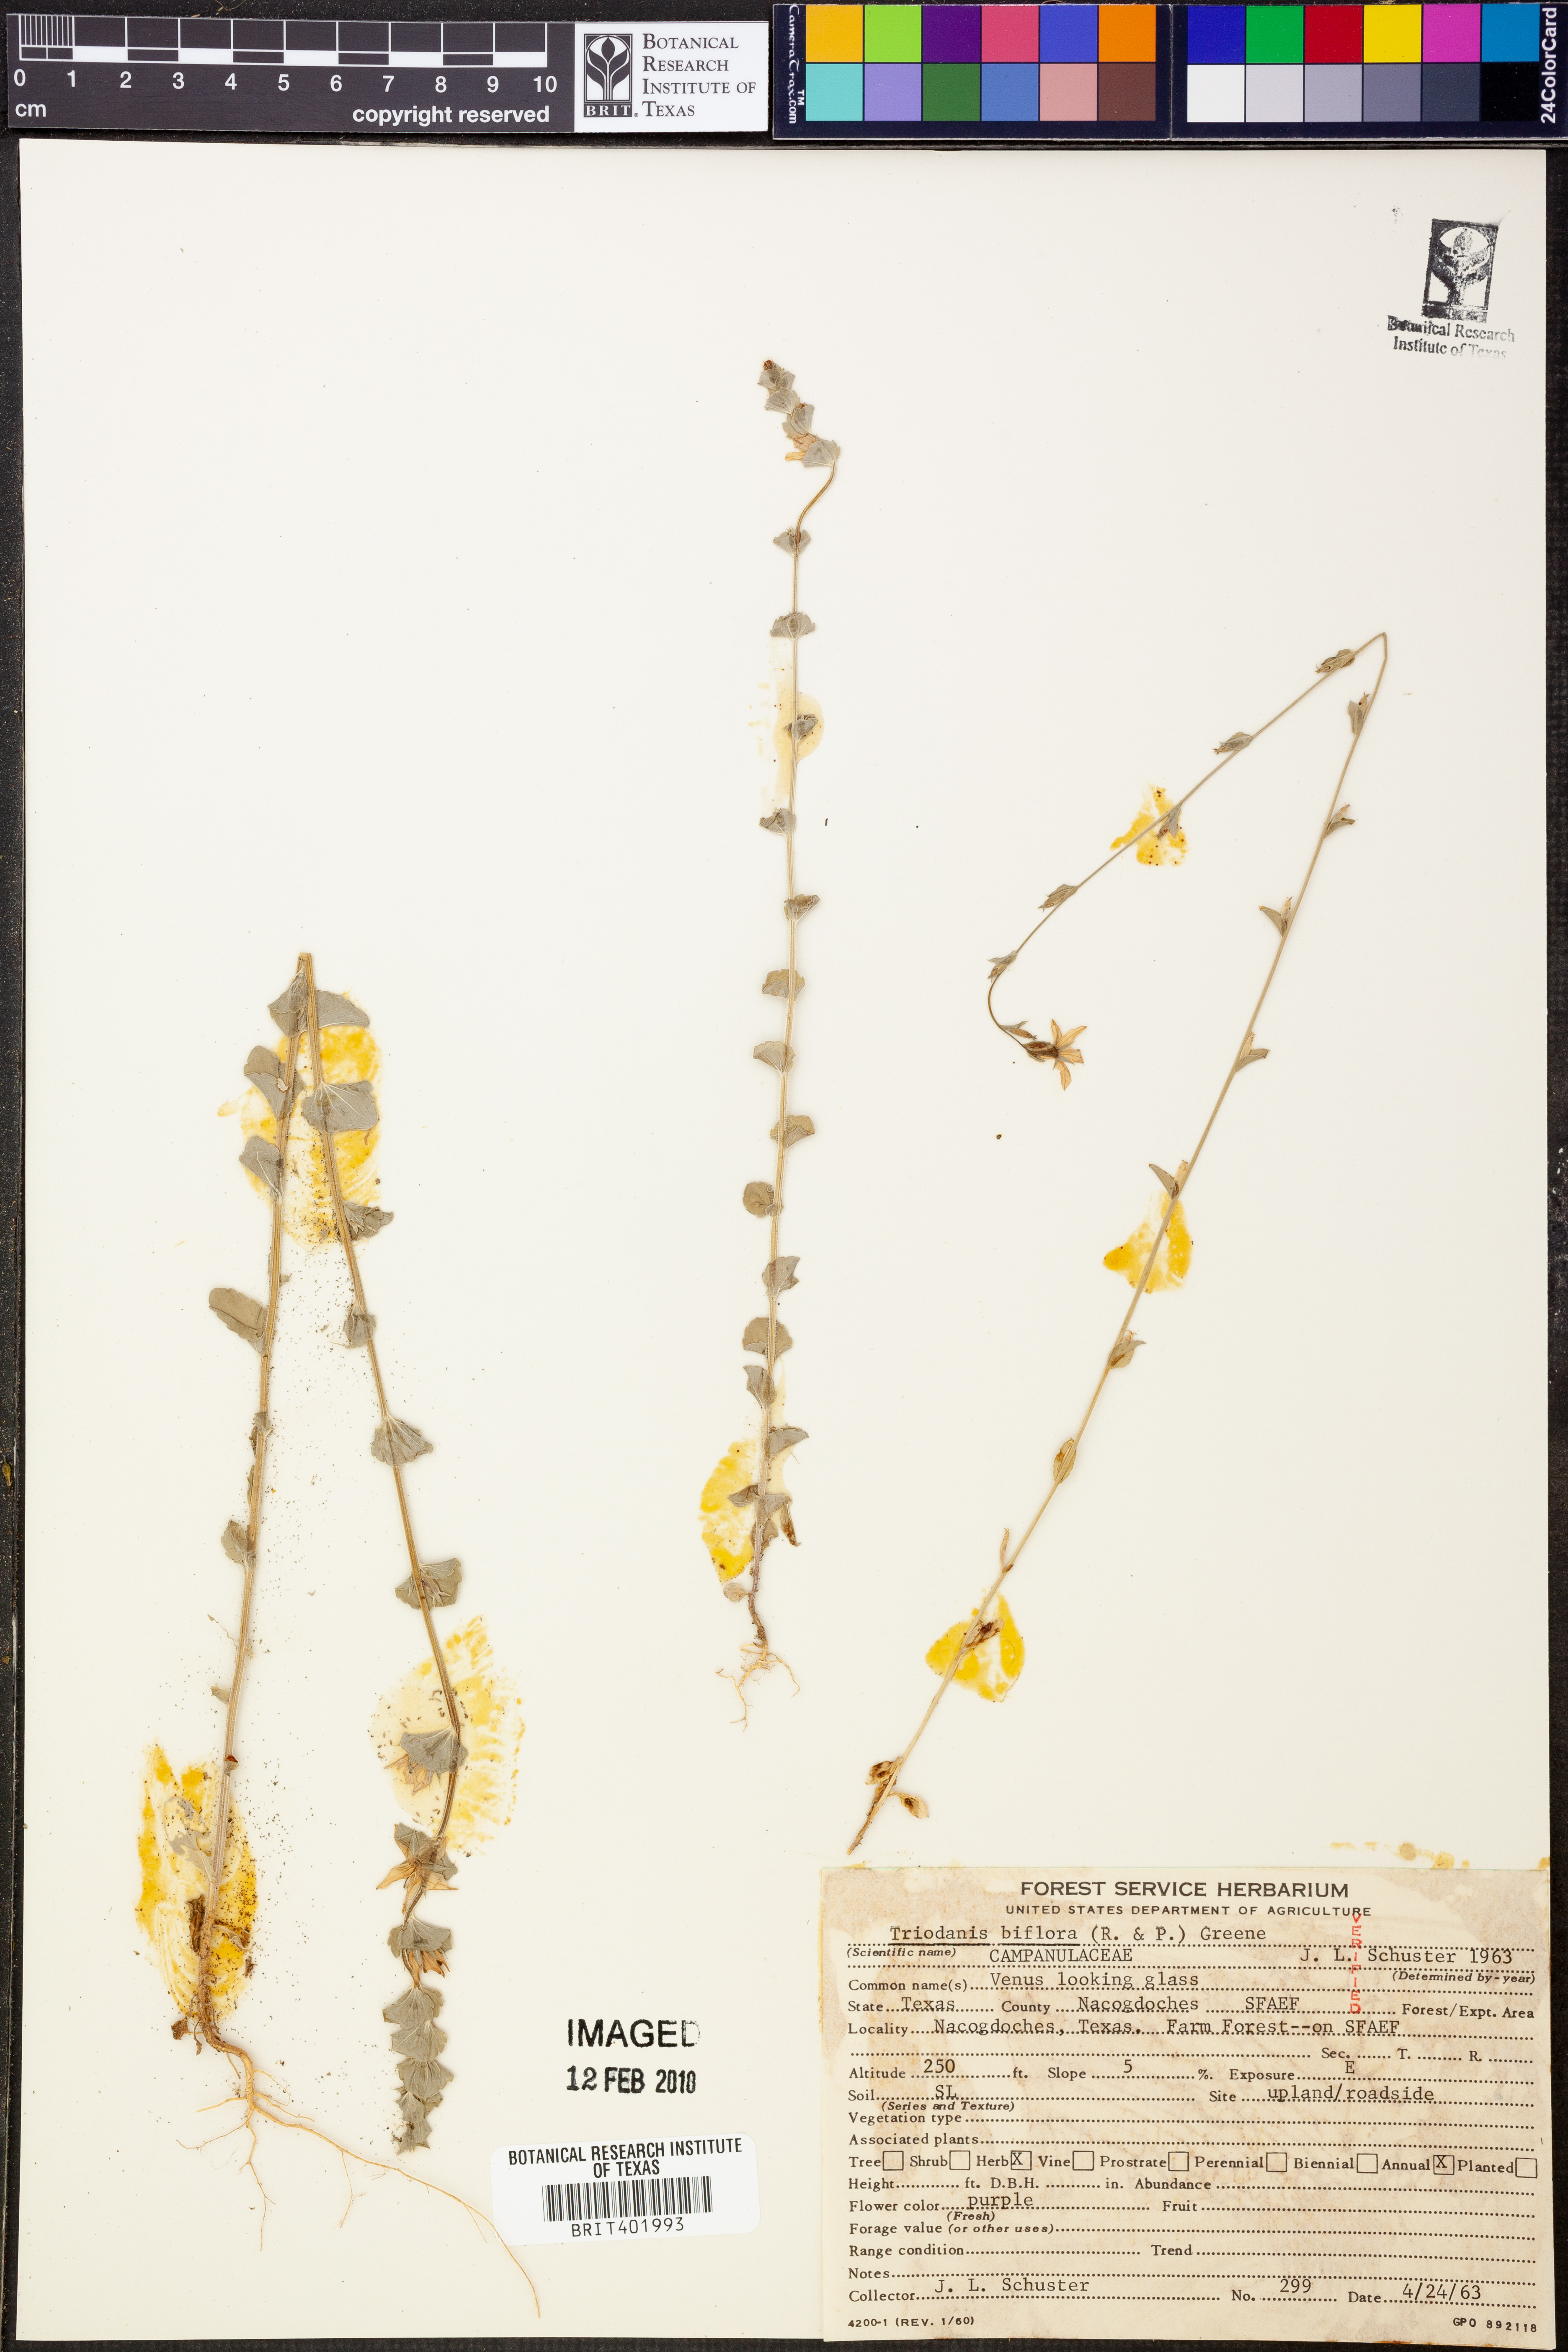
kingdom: Plantae
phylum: Tracheophyta
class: Magnoliopsida
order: Asterales
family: Campanulaceae
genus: Triodanis
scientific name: Triodanis perfoliata
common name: Clasping venus' looking-glass
